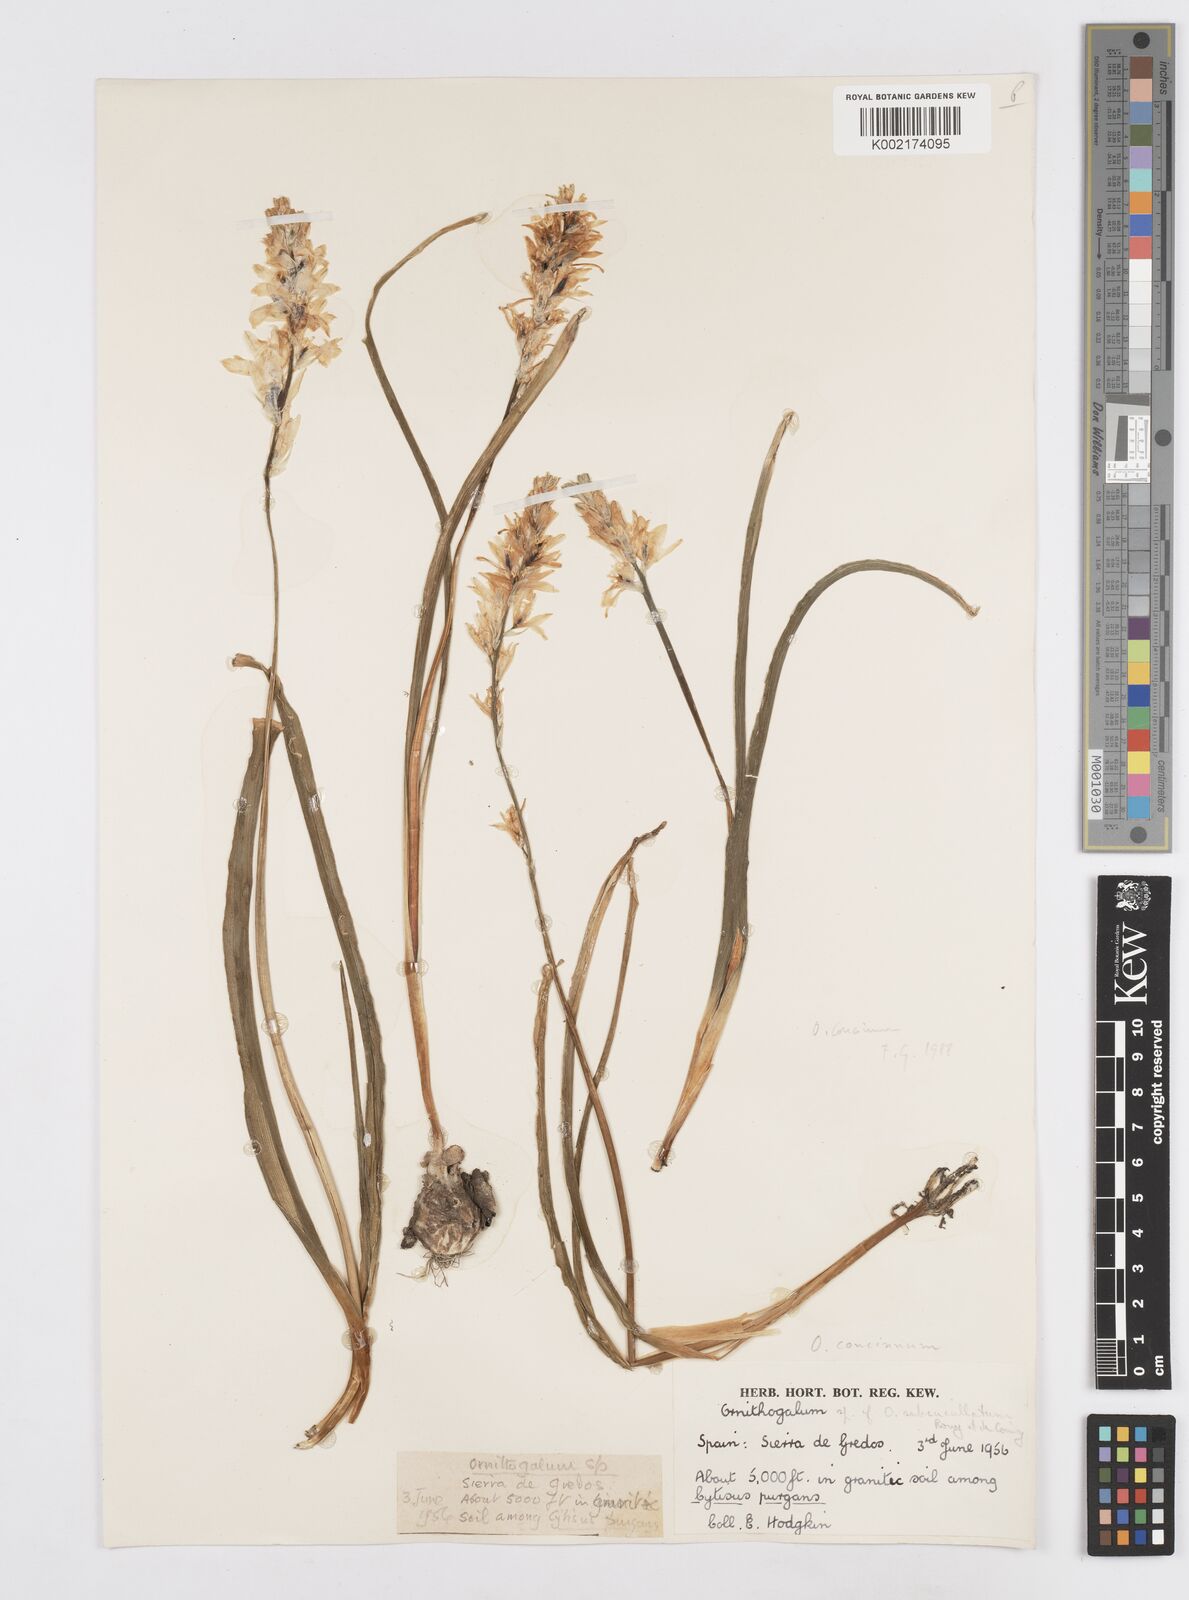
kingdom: Plantae
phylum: Tracheophyta
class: Liliopsida
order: Asparagales
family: Asparagaceae
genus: Ornithogalum
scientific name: Ornithogalum concinnum
